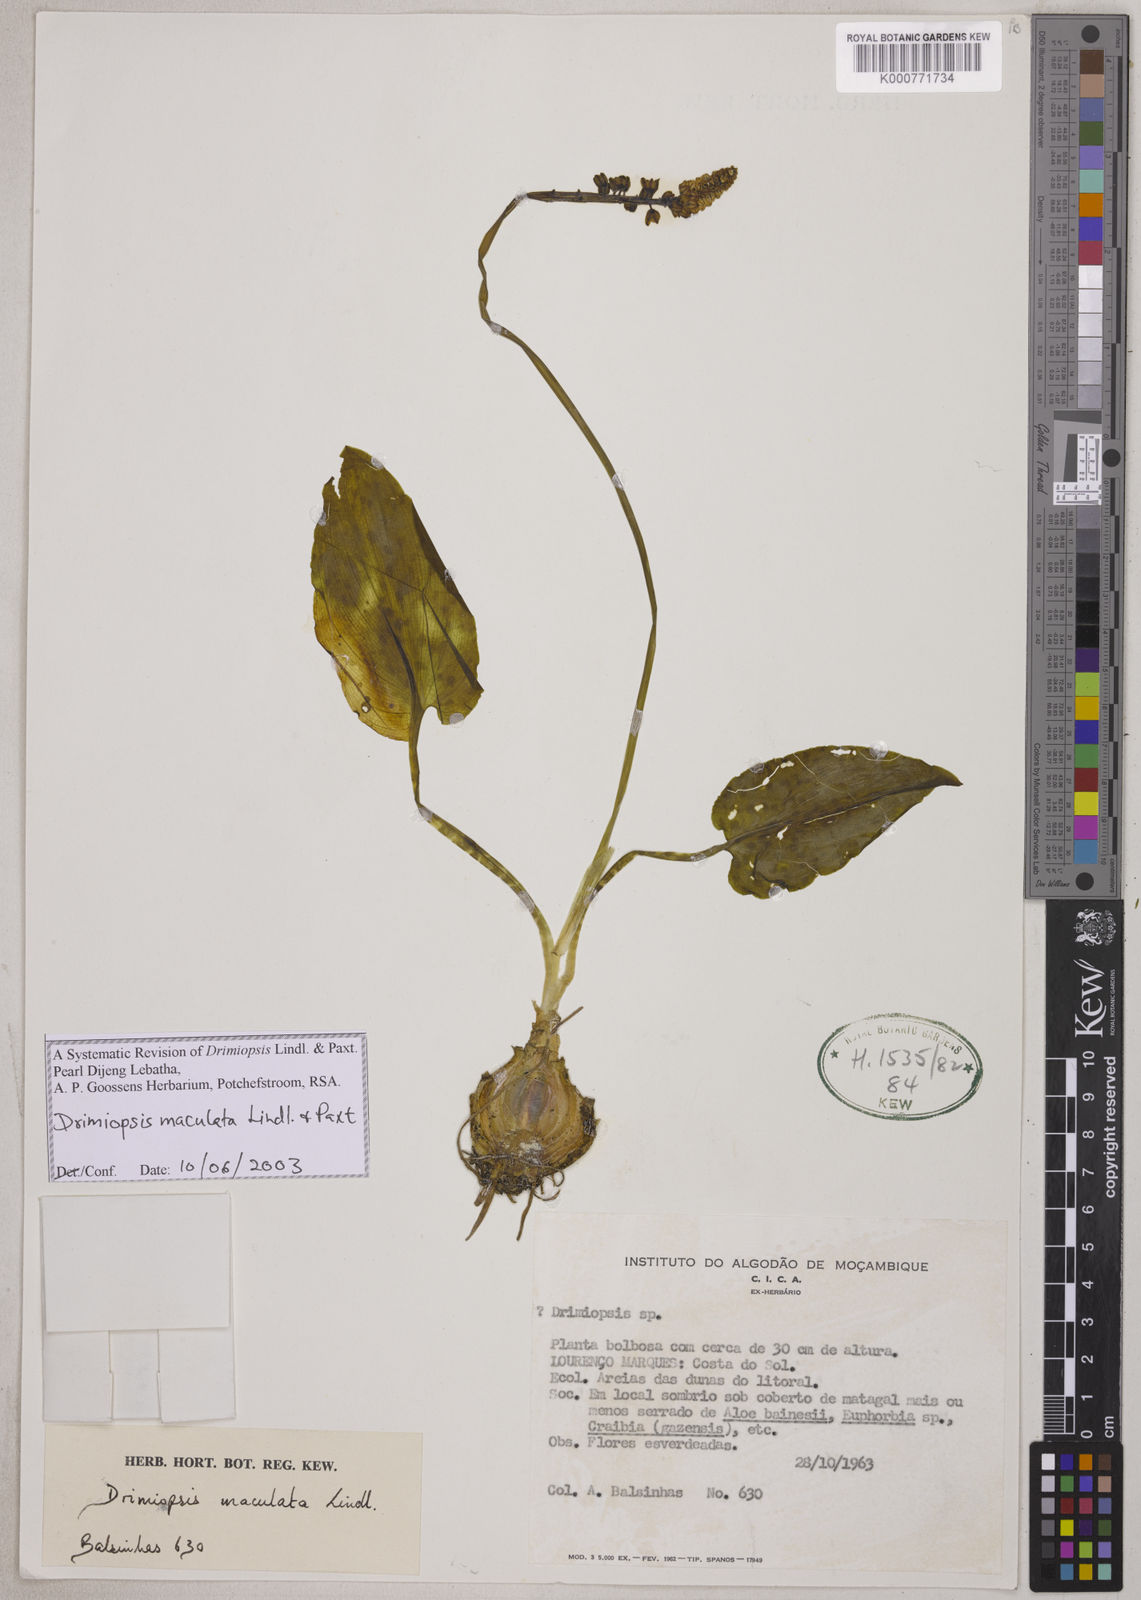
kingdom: Plantae
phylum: Tracheophyta
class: Liliopsida
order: Asparagales
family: Asparagaceae
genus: Drimiopsis
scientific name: Drimiopsis maculata
